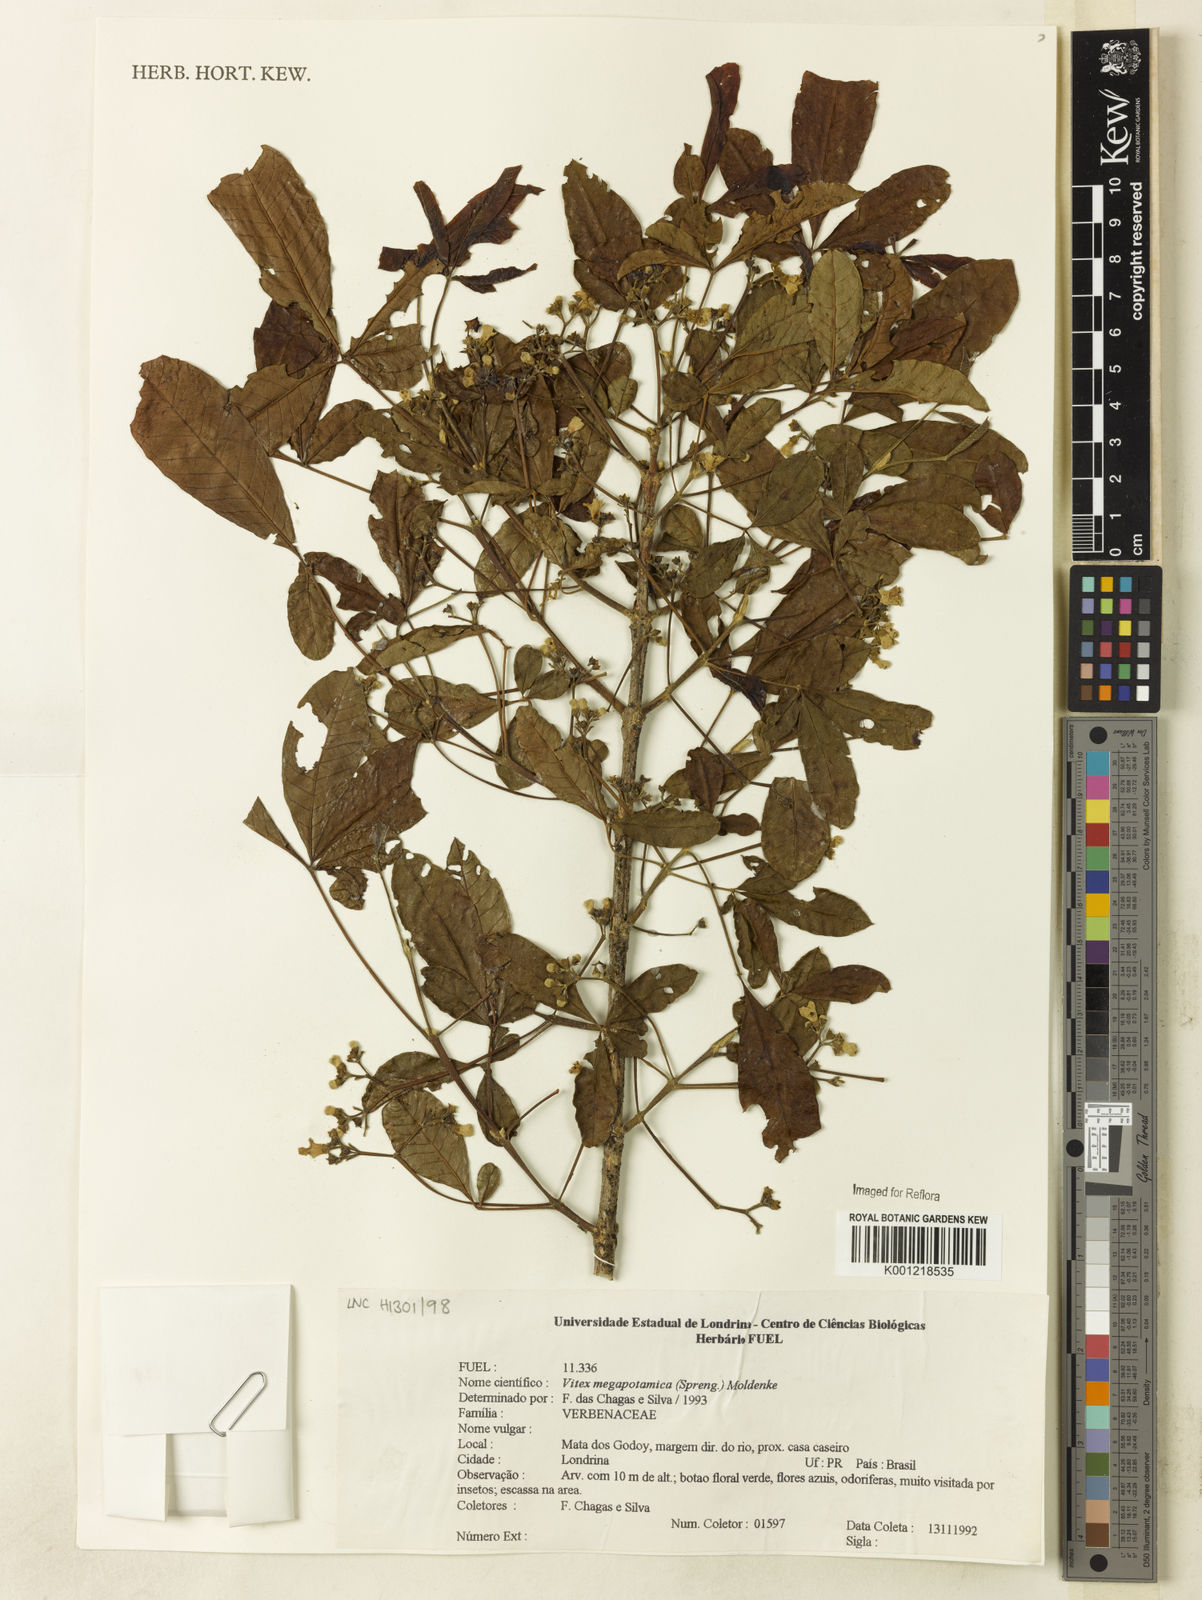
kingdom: Plantae
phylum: Tracheophyta
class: Magnoliopsida
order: Lamiales
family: Lamiaceae
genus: Vitex
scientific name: Vitex megapotamica
